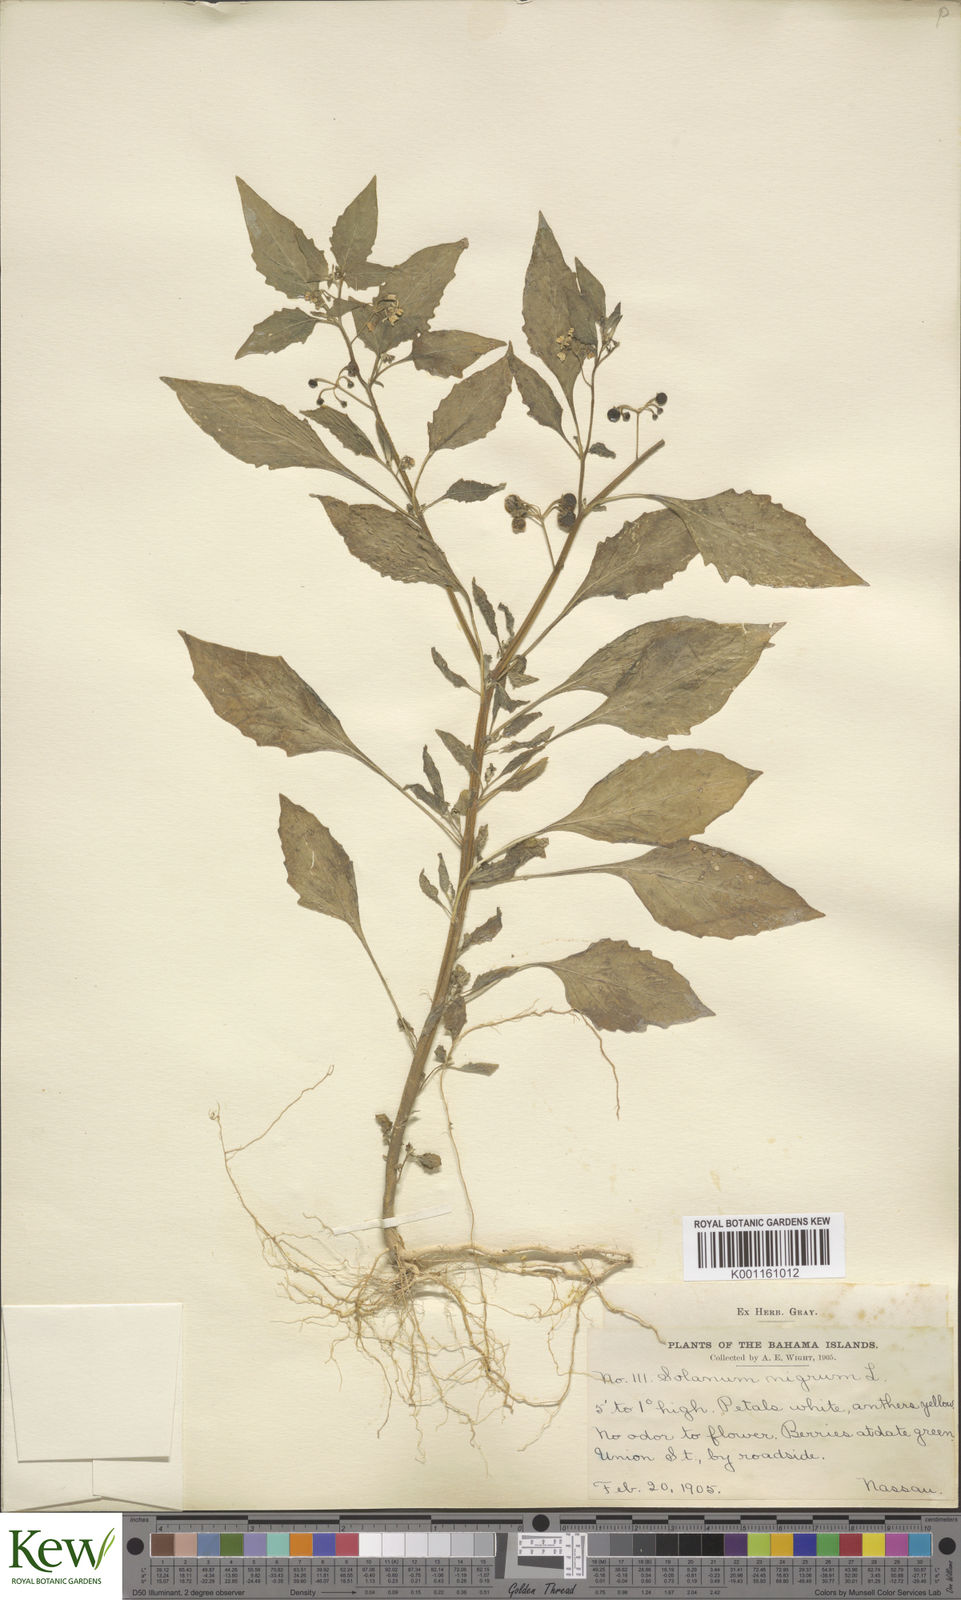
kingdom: Plantae
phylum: Tracheophyta
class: Magnoliopsida
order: Solanales
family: Solanaceae
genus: Solanum
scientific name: Solanum americanum
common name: American black nightshade
